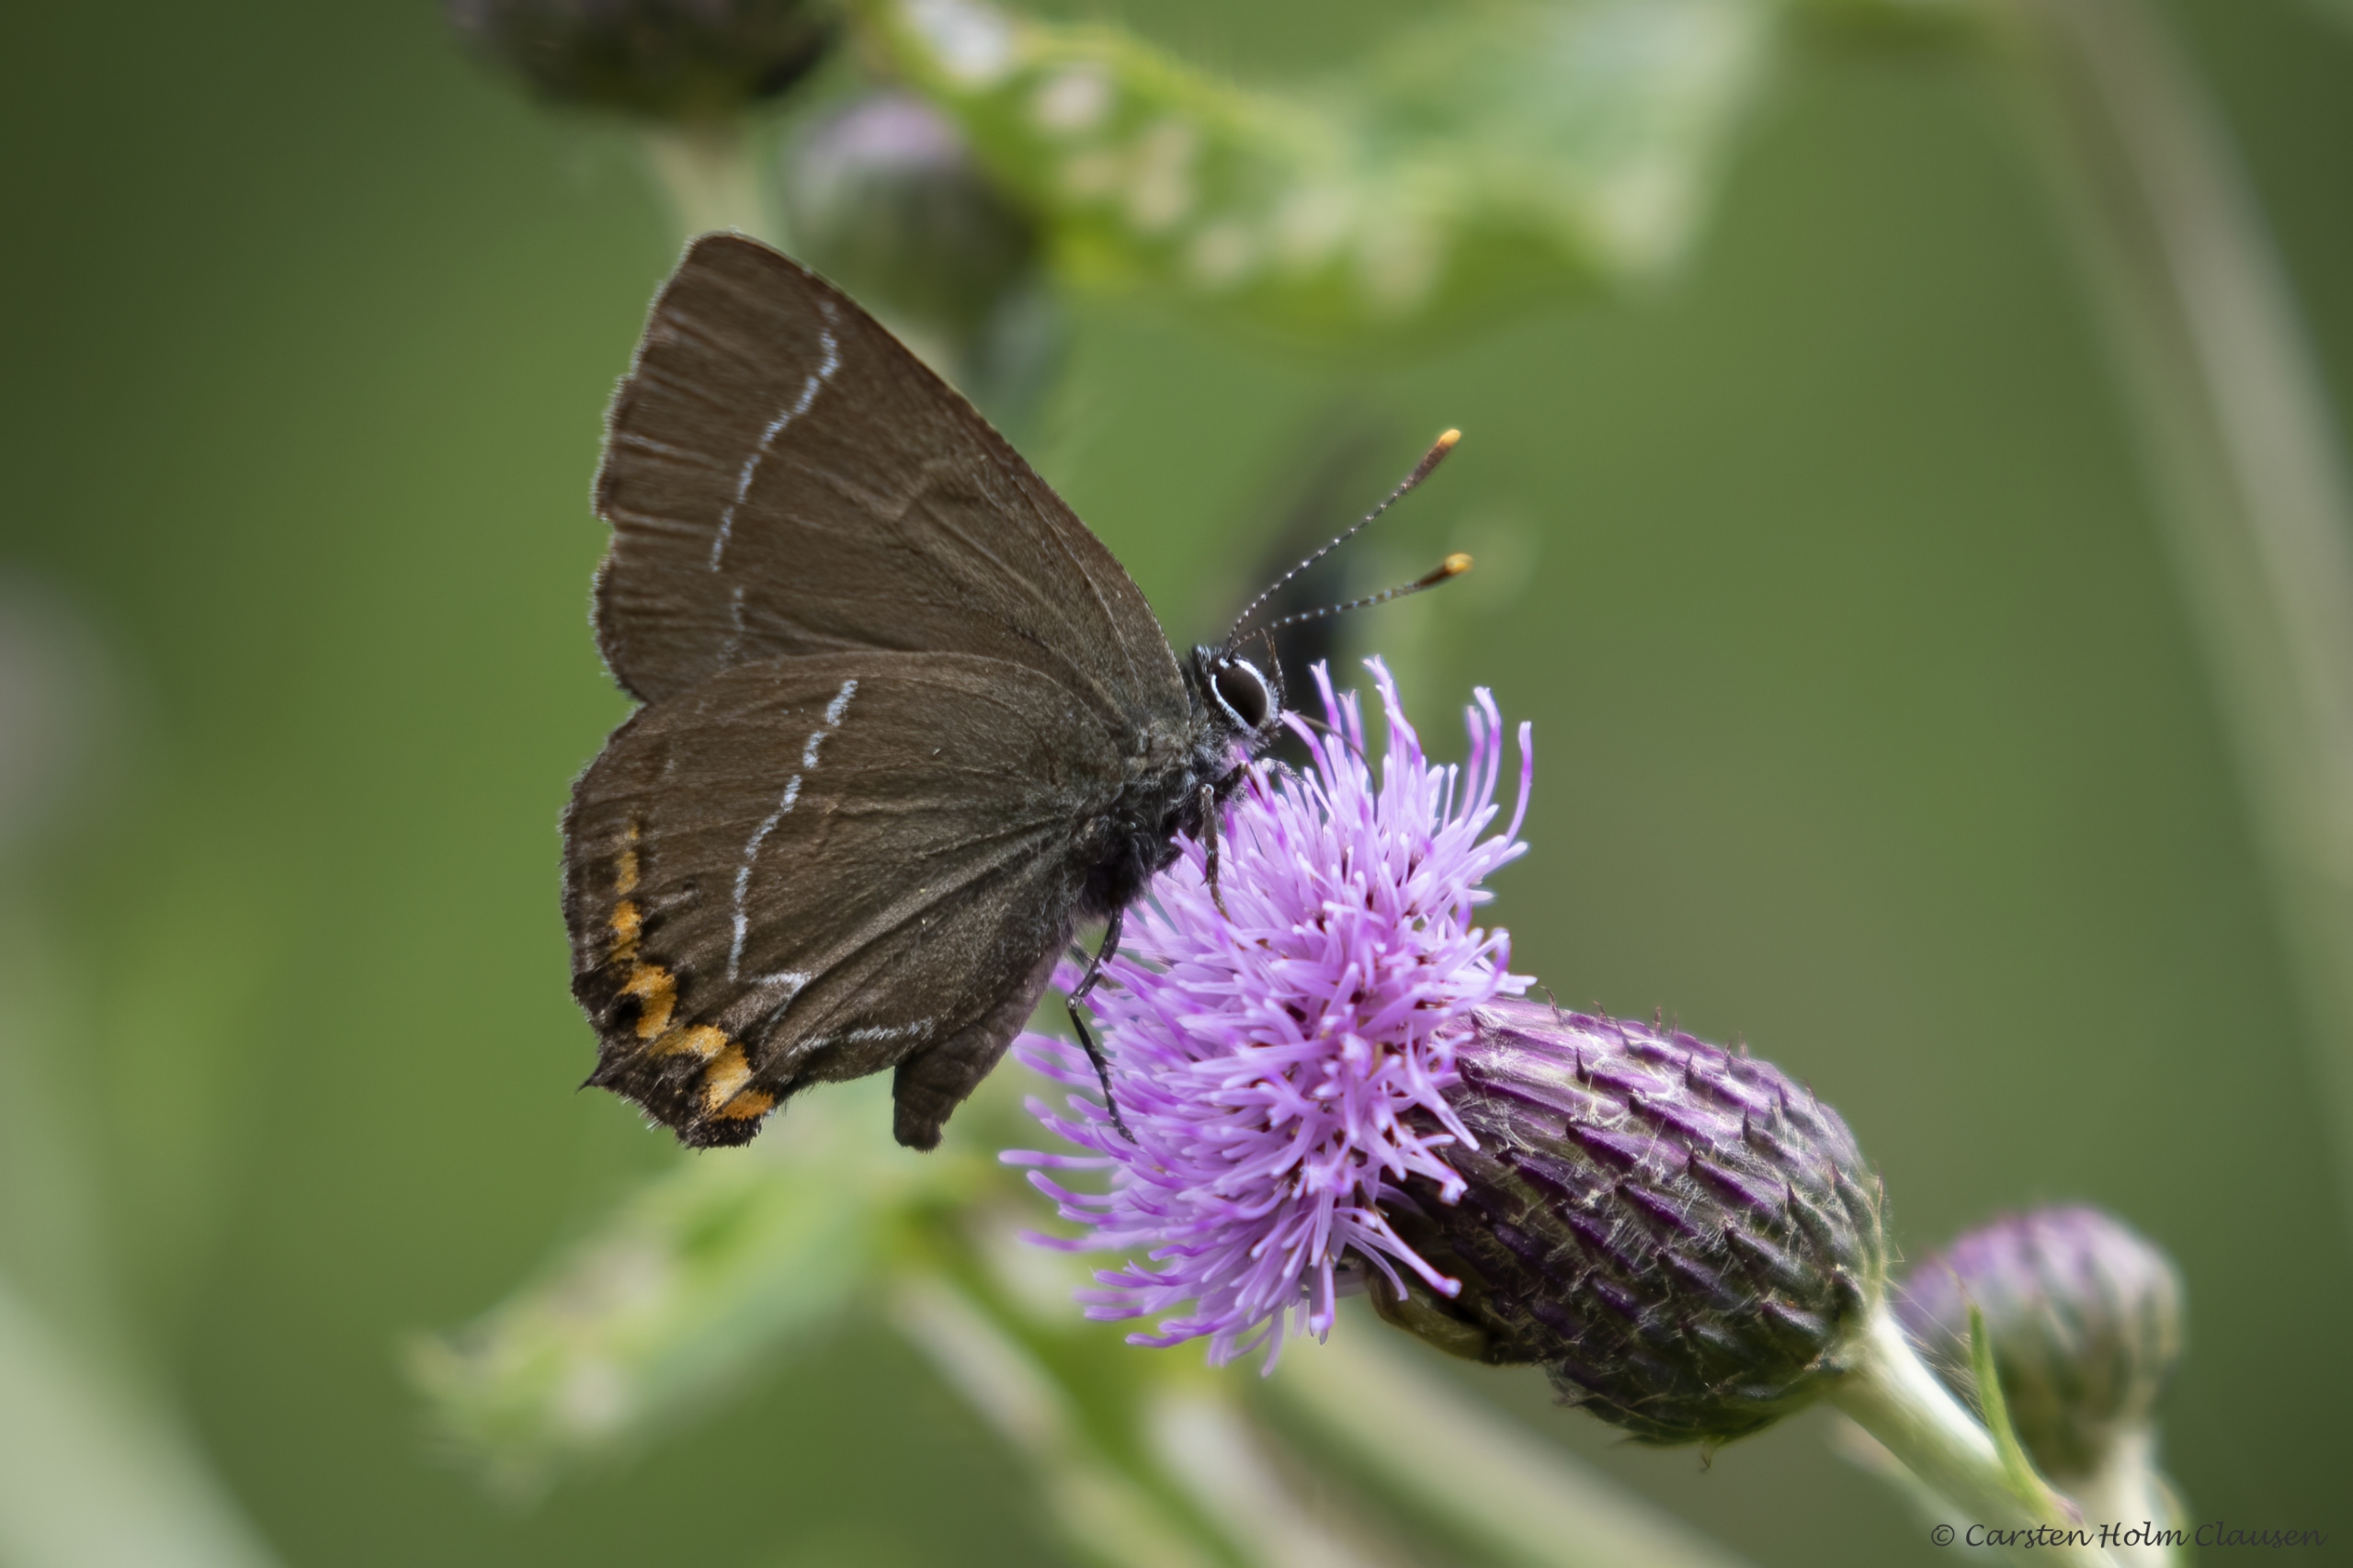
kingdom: Animalia
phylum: Arthropoda
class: Insecta
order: Lepidoptera
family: Lycaenidae
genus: Satyrium
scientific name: Satyrium w-album
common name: Det hvide W
